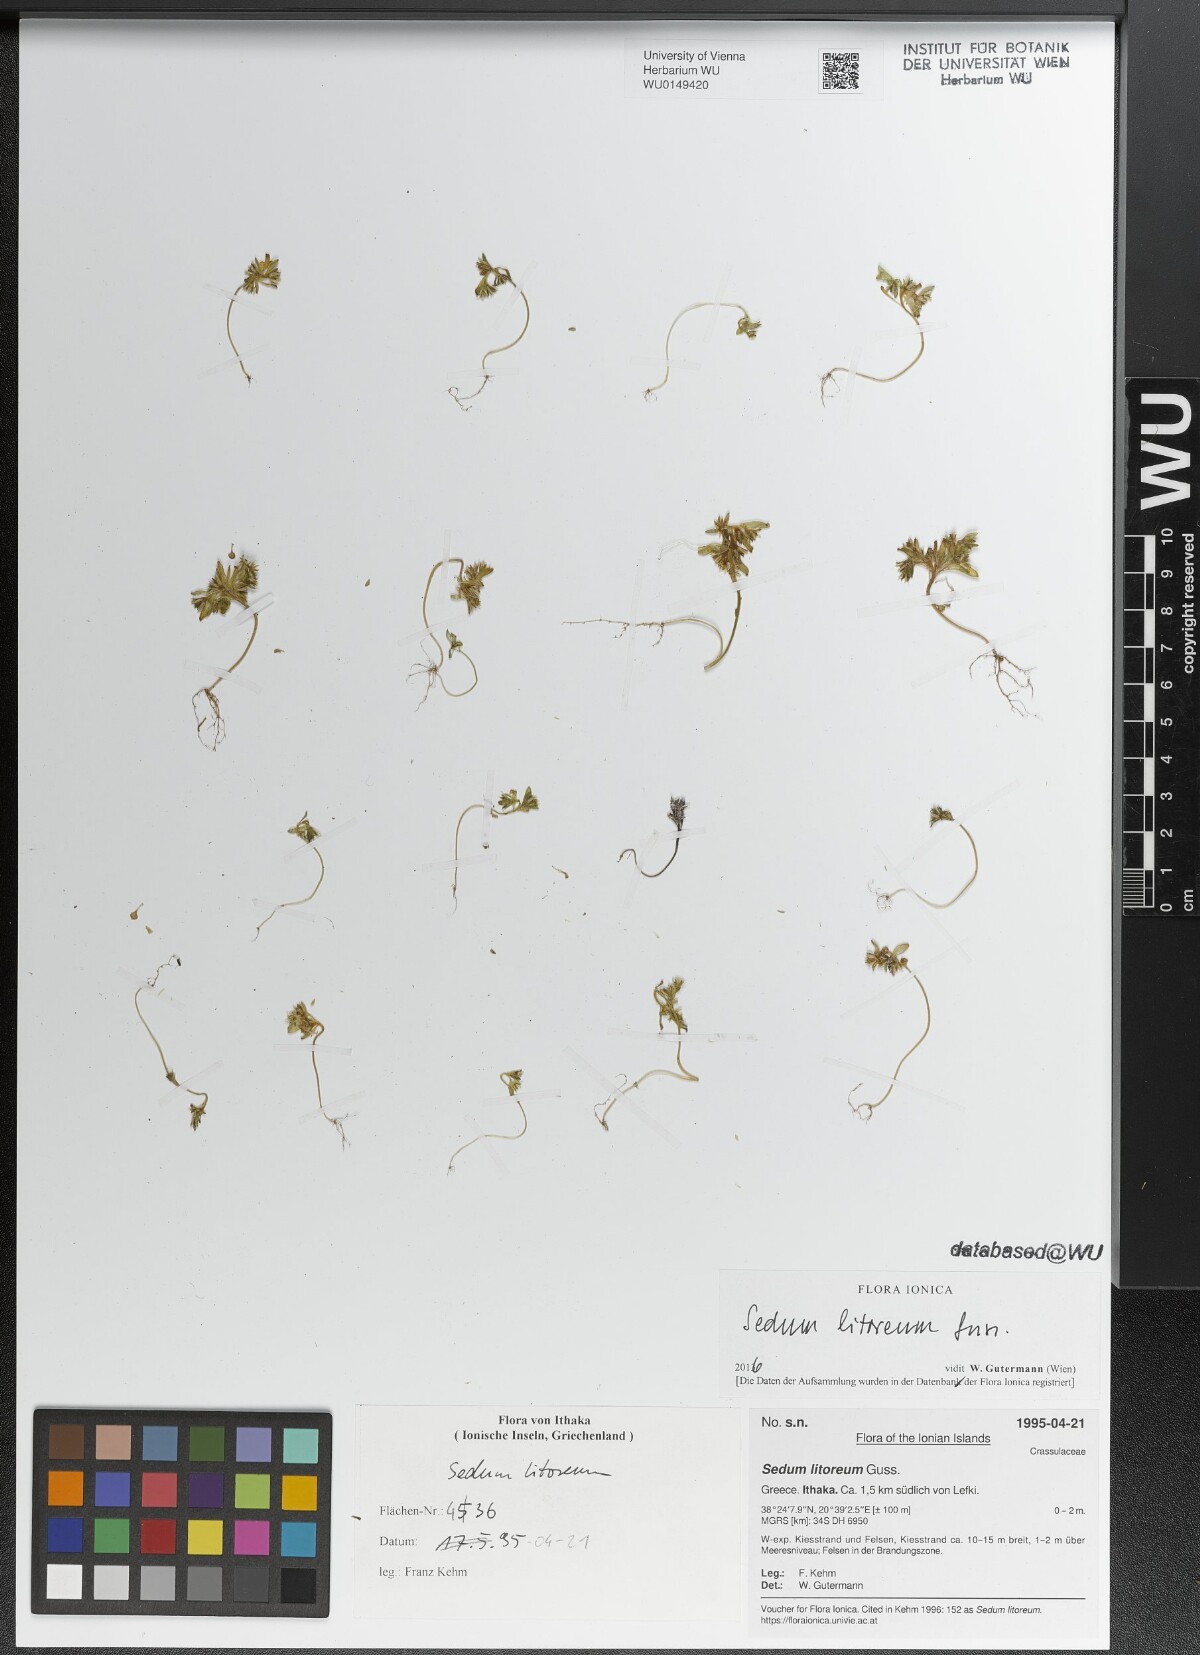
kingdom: Plantae
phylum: Tracheophyta
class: Magnoliopsida
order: Saxifragales
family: Crassulaceae
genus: Sedum
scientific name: Sedum litoreum
